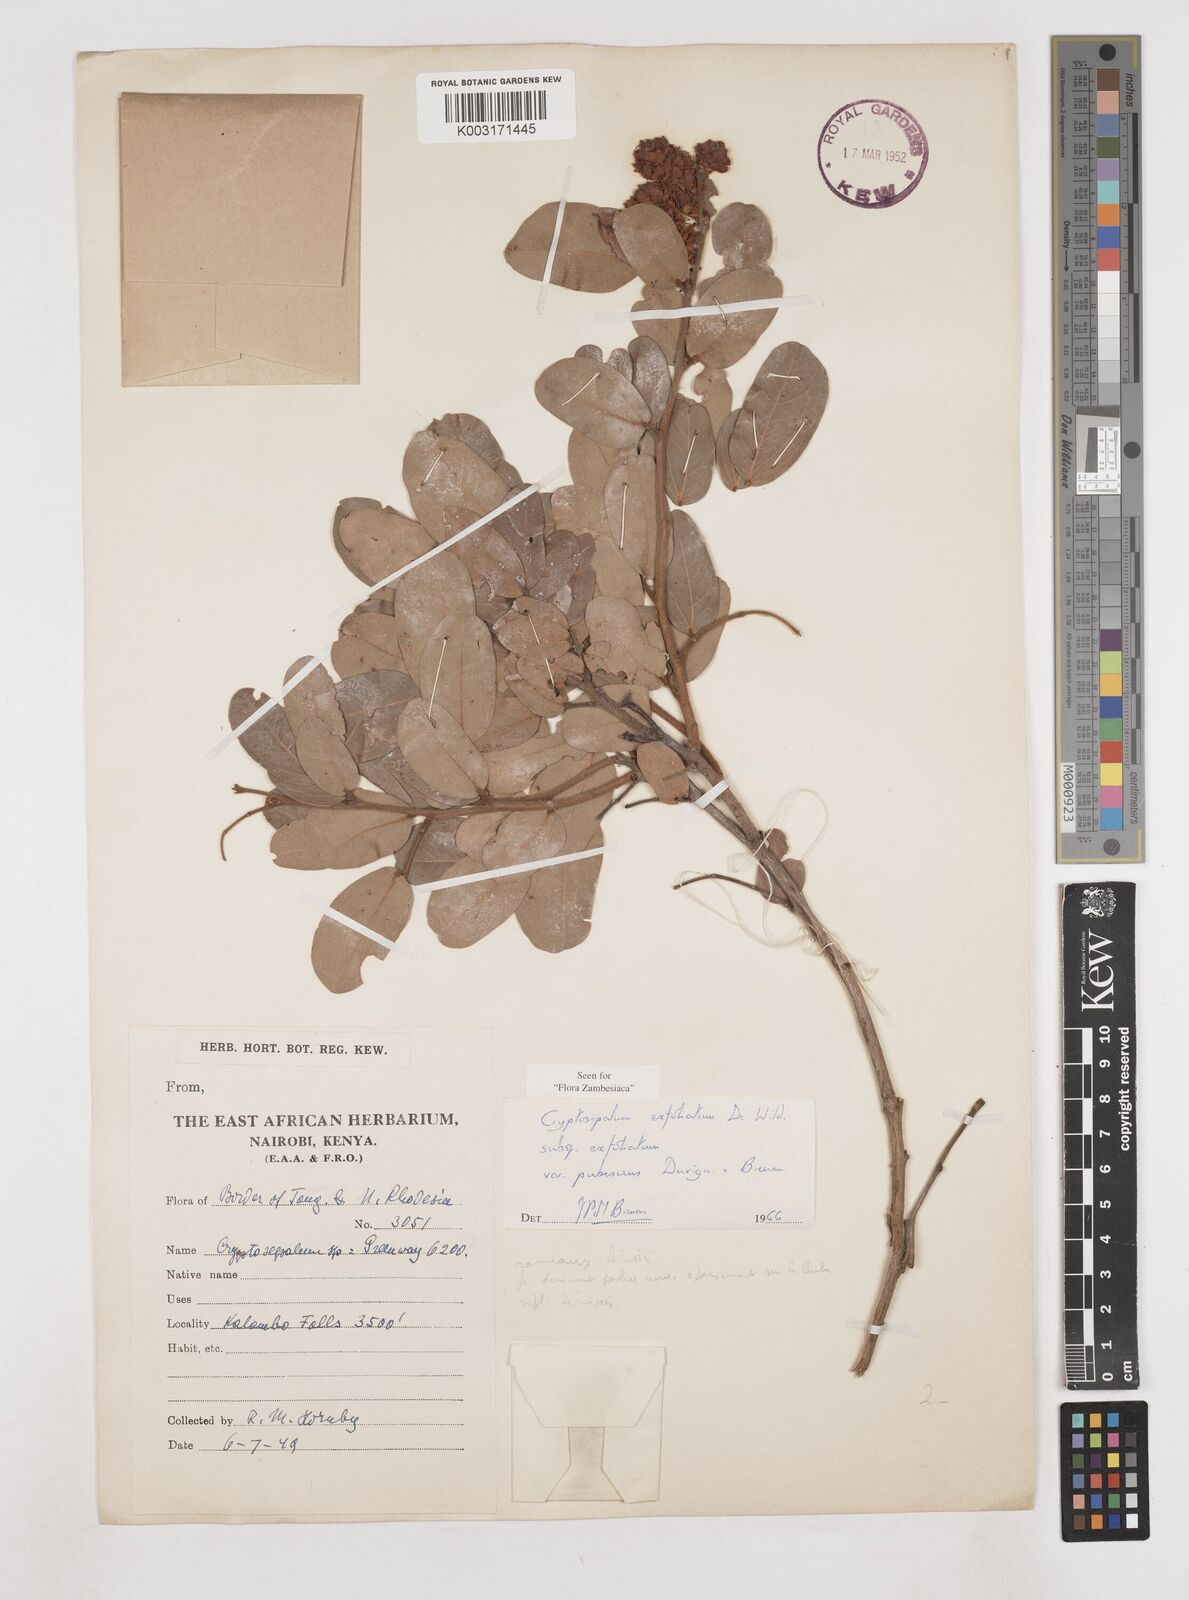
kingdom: Plantae
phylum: Tracheophyta
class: Magnoliopsida
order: Fabales
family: Fabaceae
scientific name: Fabaceae
